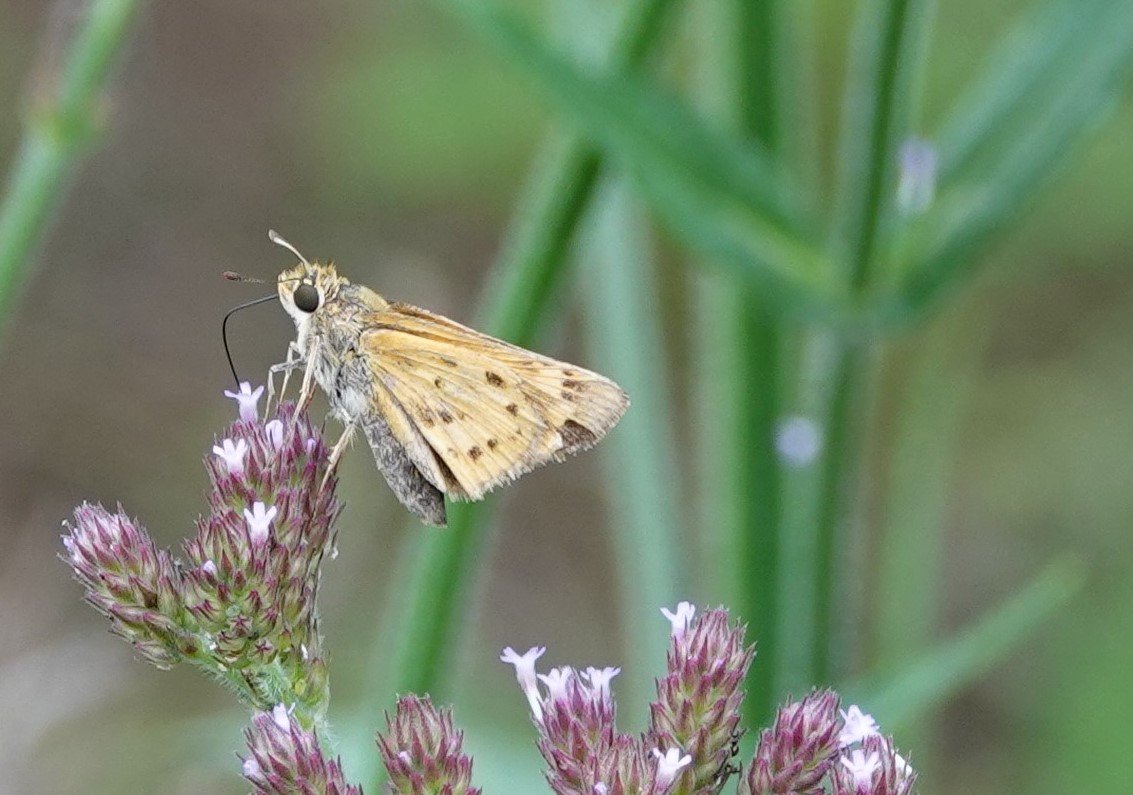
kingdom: Animalia
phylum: Arthropoda
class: Insecta
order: Lepidoptera
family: Hesperiidae
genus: Hylephila
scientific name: Hylephila phyleus
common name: Fiery Skipper
